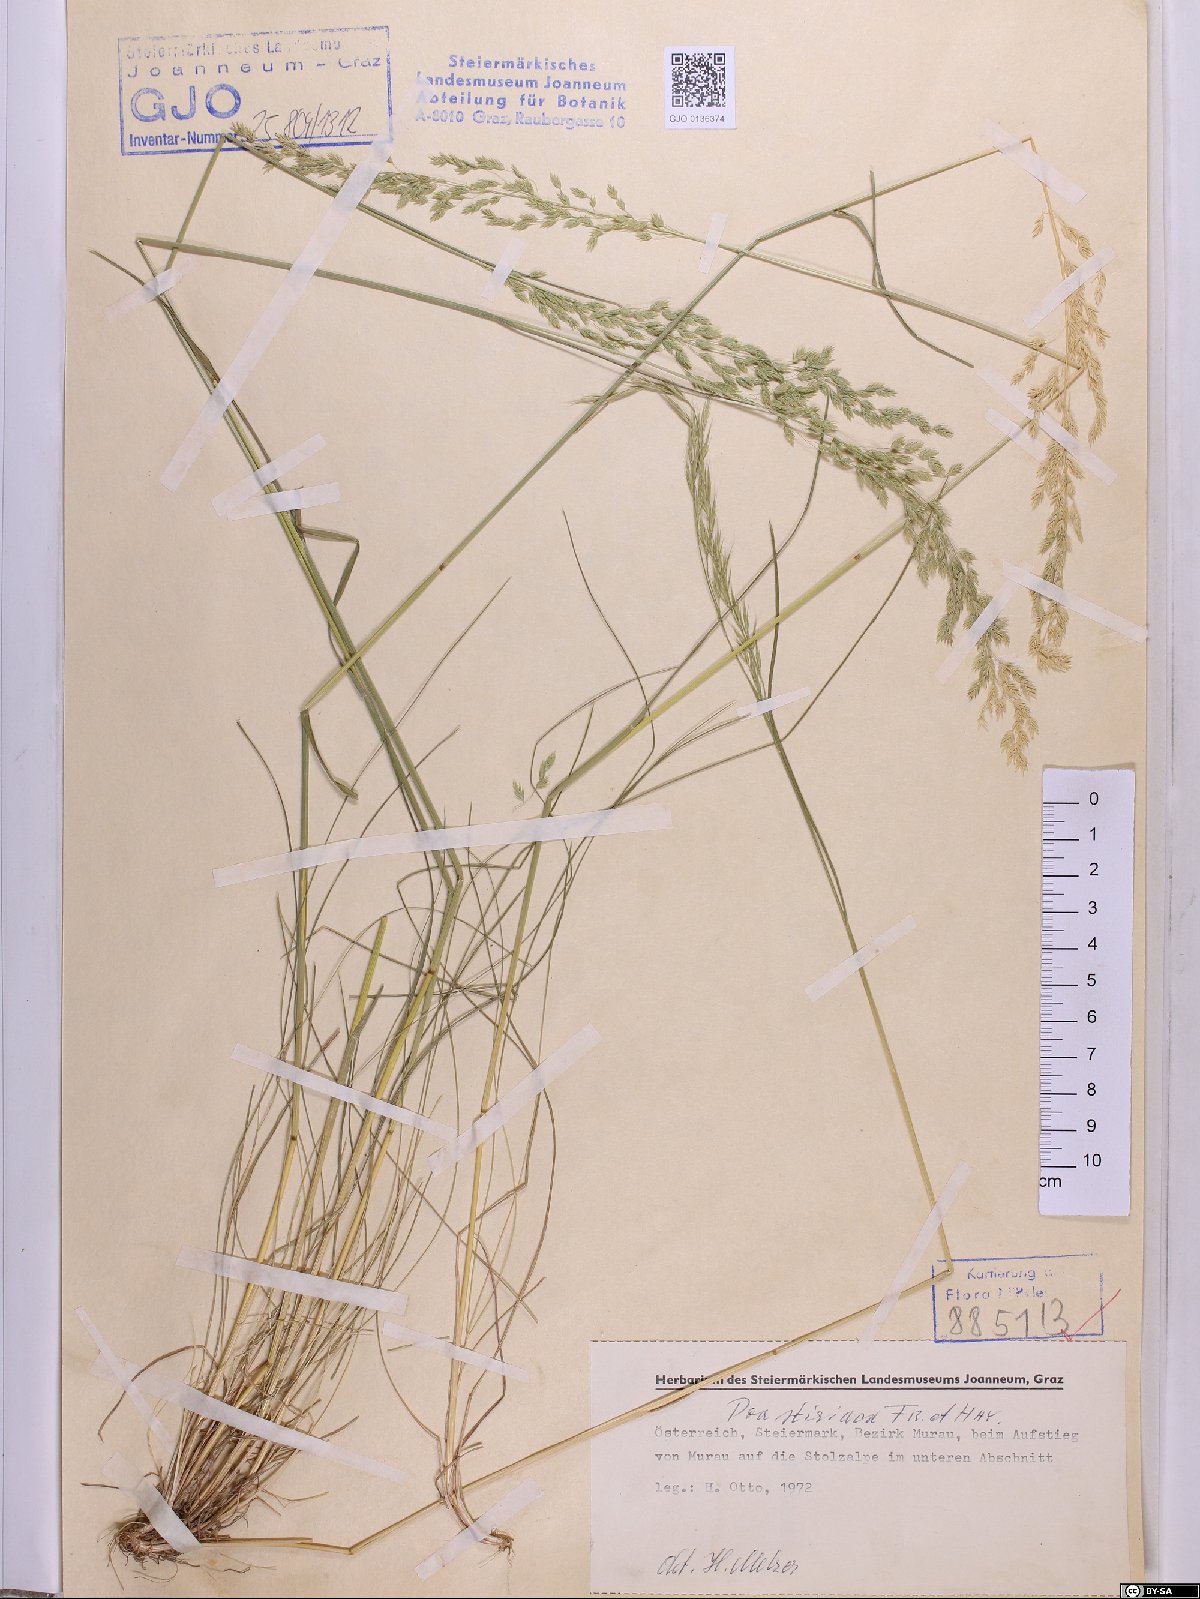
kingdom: Plantae
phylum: Tracheophyta
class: Liliopsida
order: Poales
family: Poaceae
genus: Poa
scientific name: Poa stiriaca
